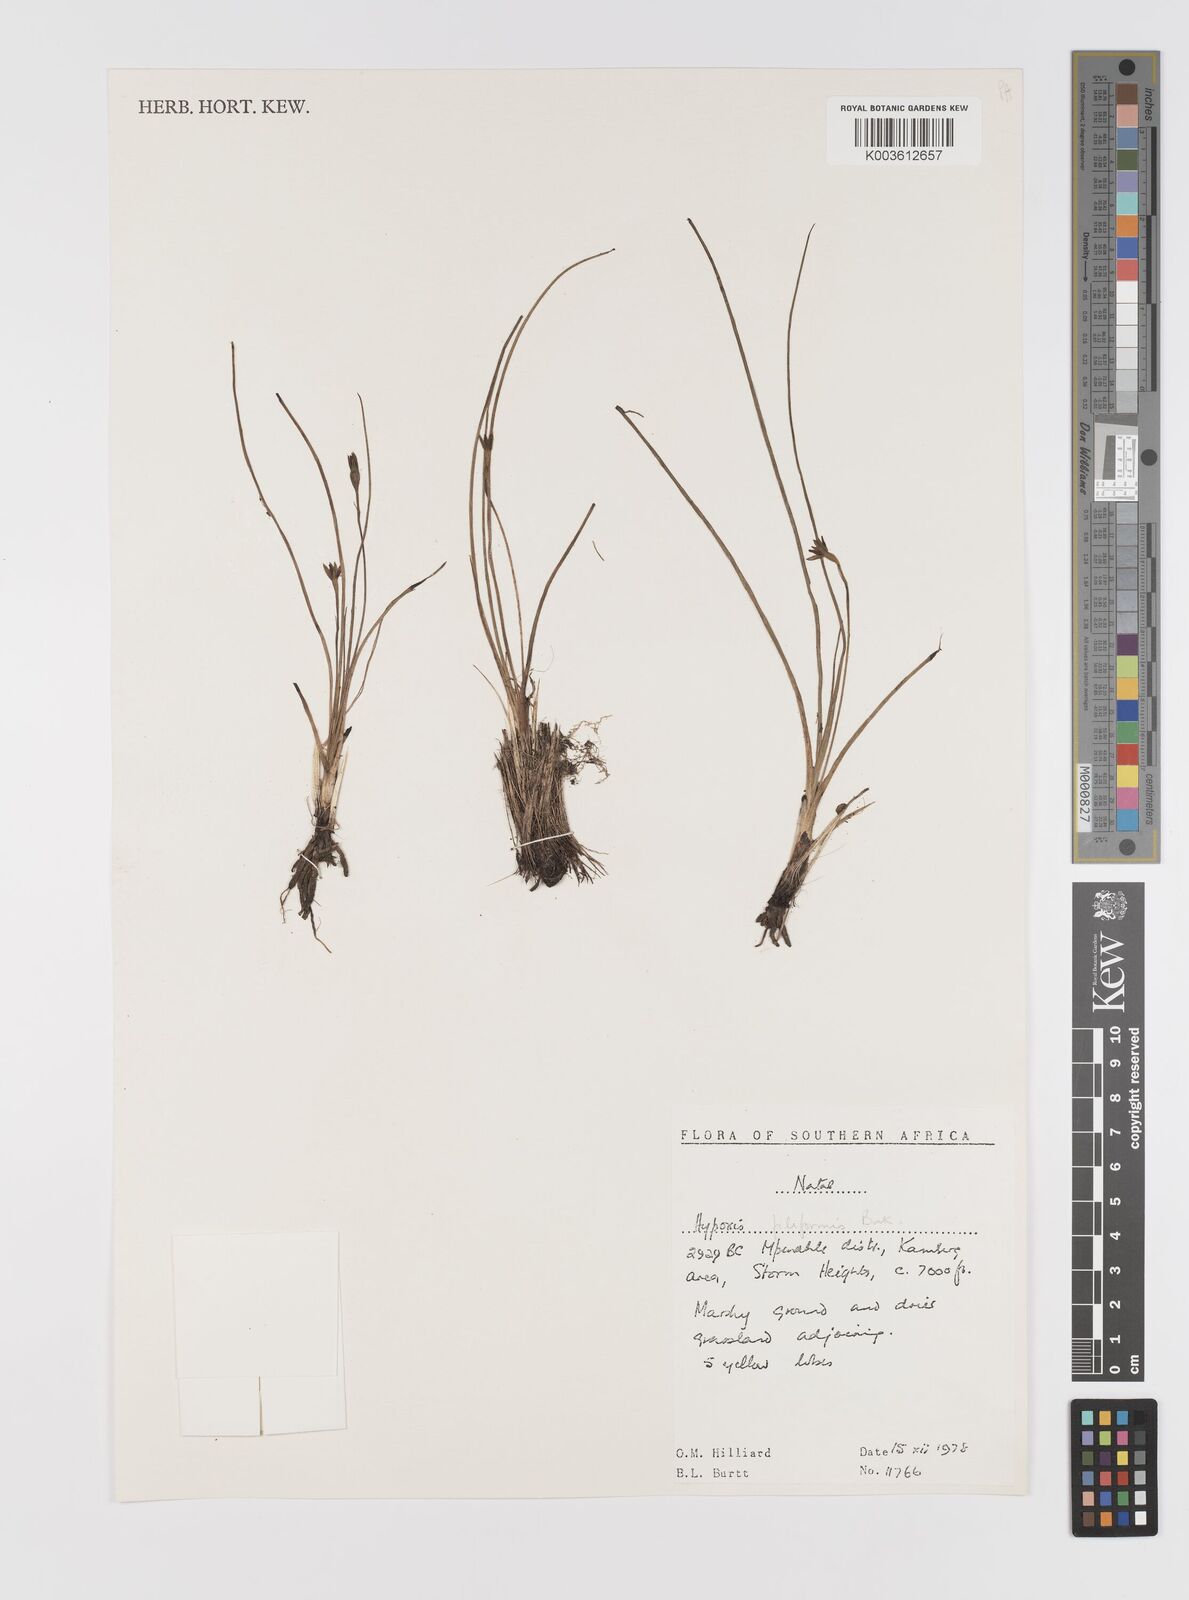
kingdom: Plantae
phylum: Tracheophyta
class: Liliopsida
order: Asparagales
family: Hypoxidaceae
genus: Hypoxis
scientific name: Hypoxis filiformis
